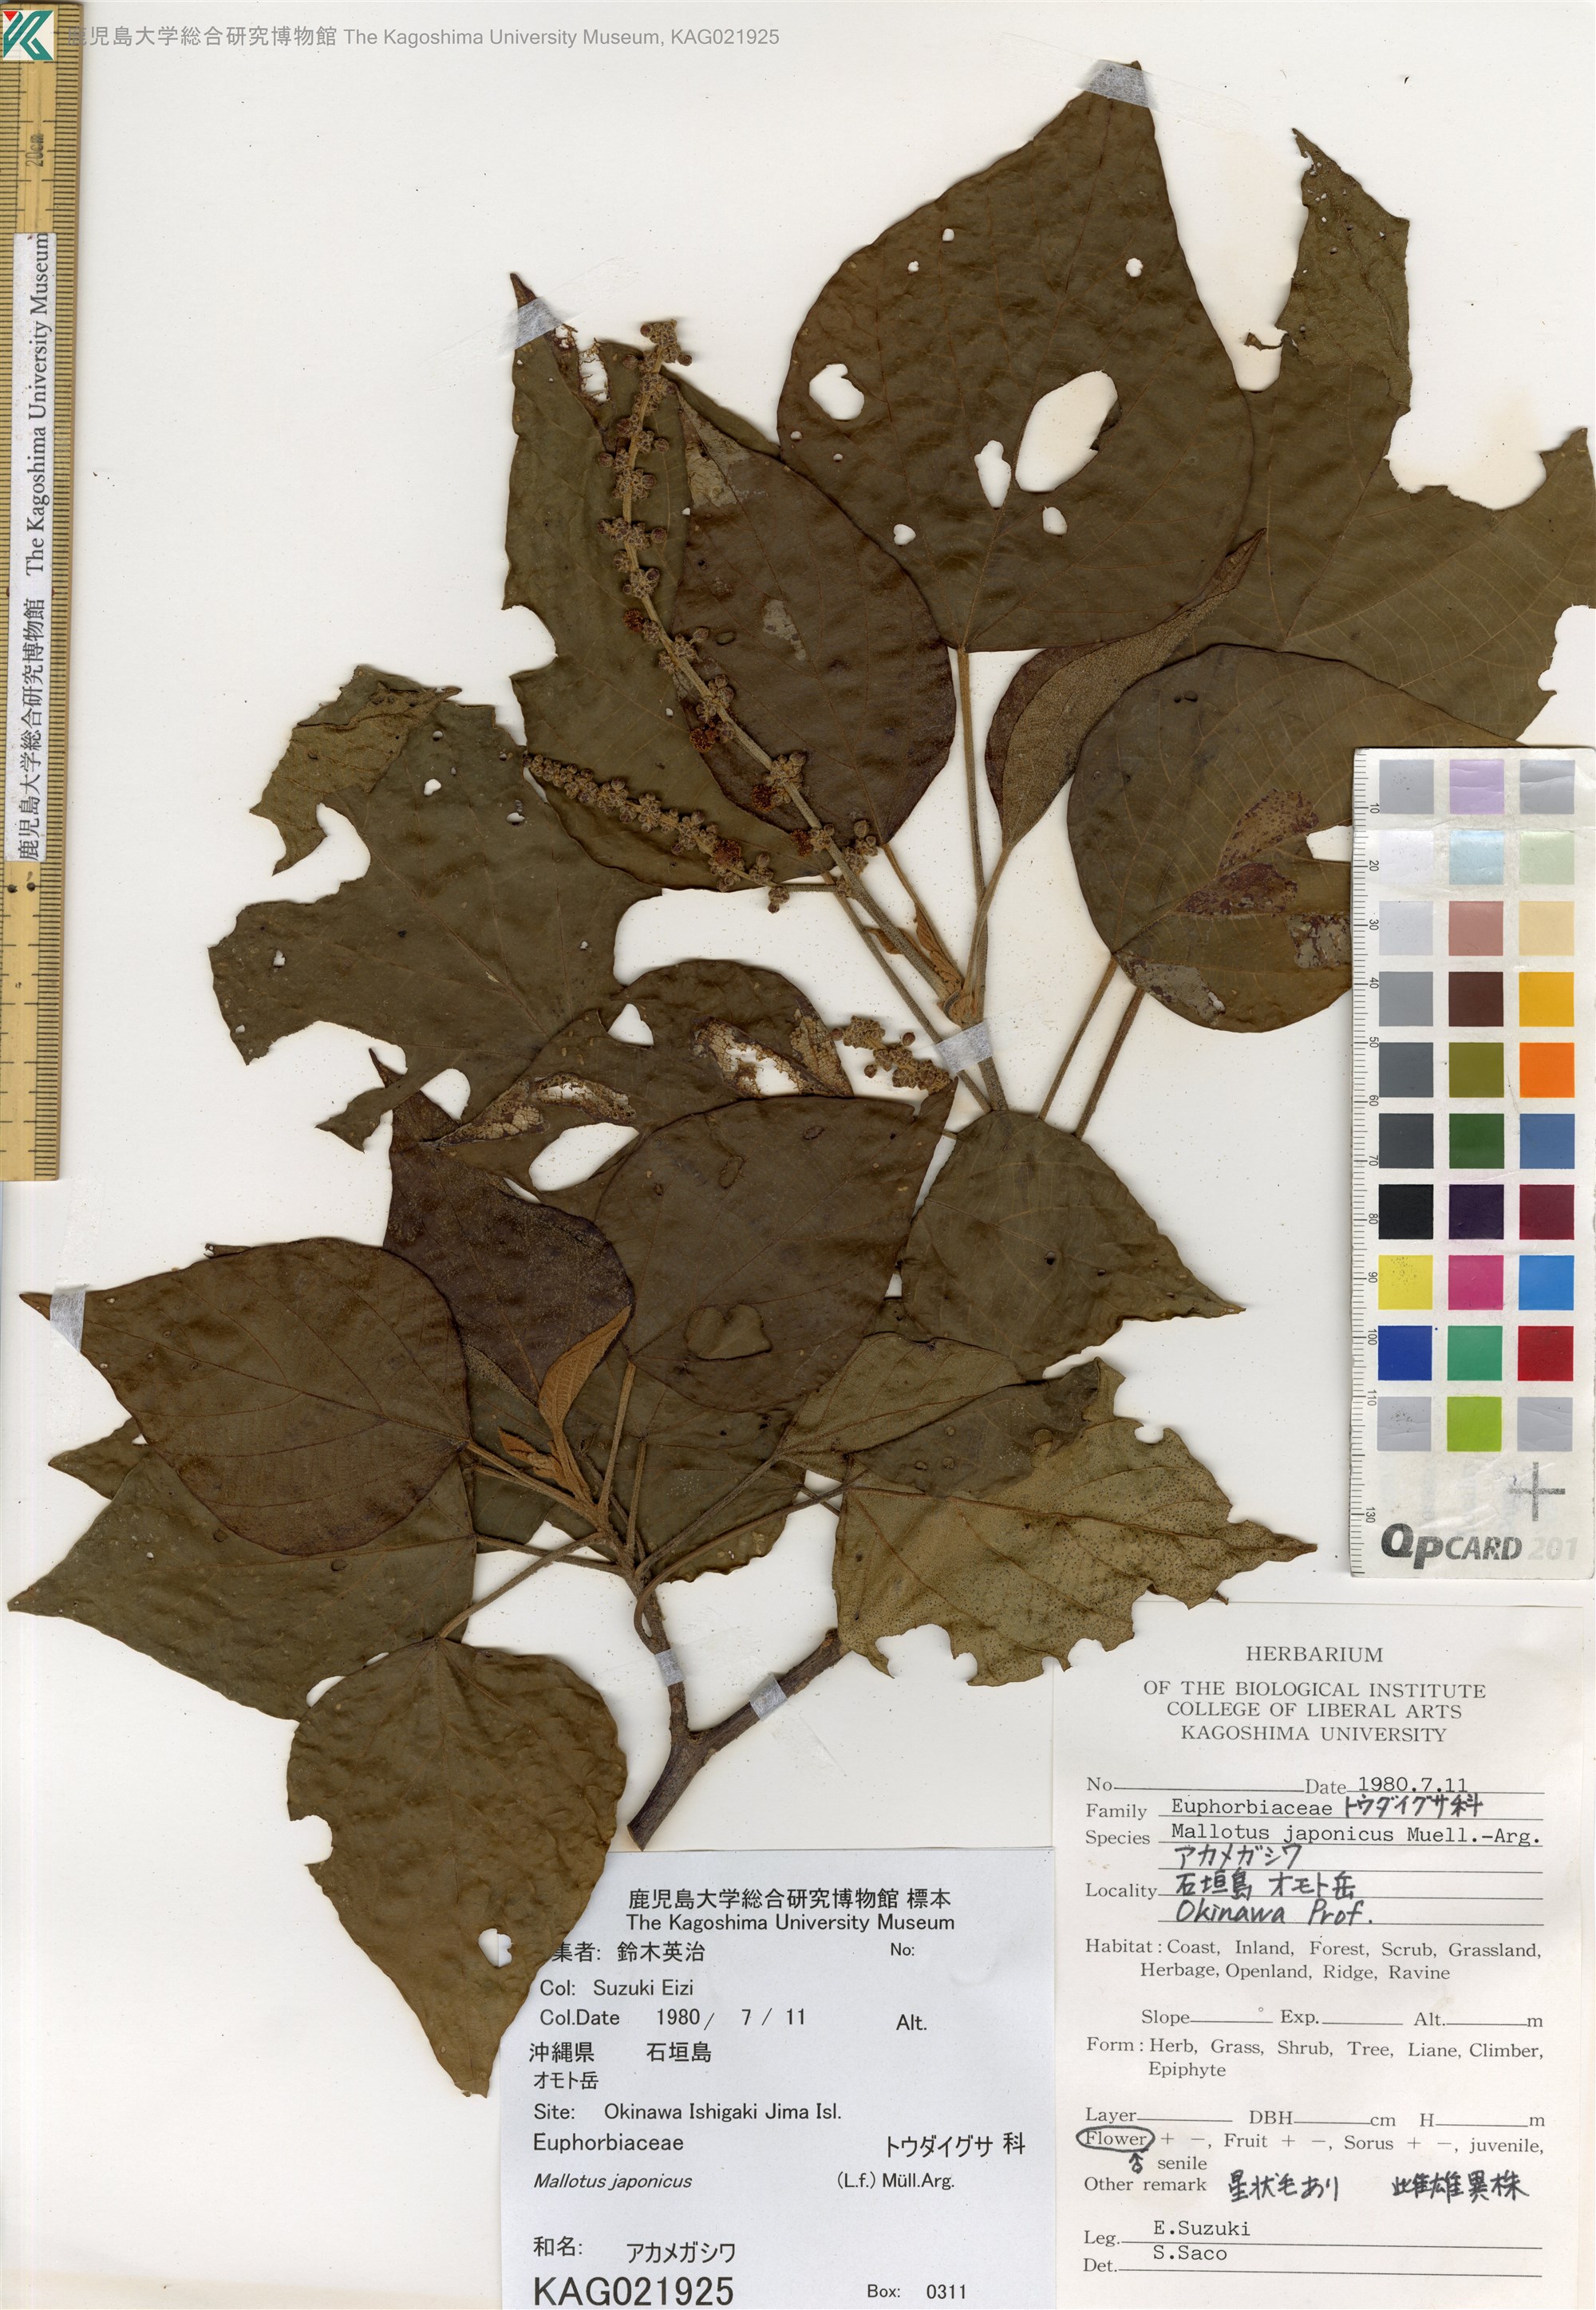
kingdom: Plantae
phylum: Tracheophyta
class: Magnoliopsida
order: Malpighiales
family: Euphorbiaceae
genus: Mallotus
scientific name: Mallotus japonicus
